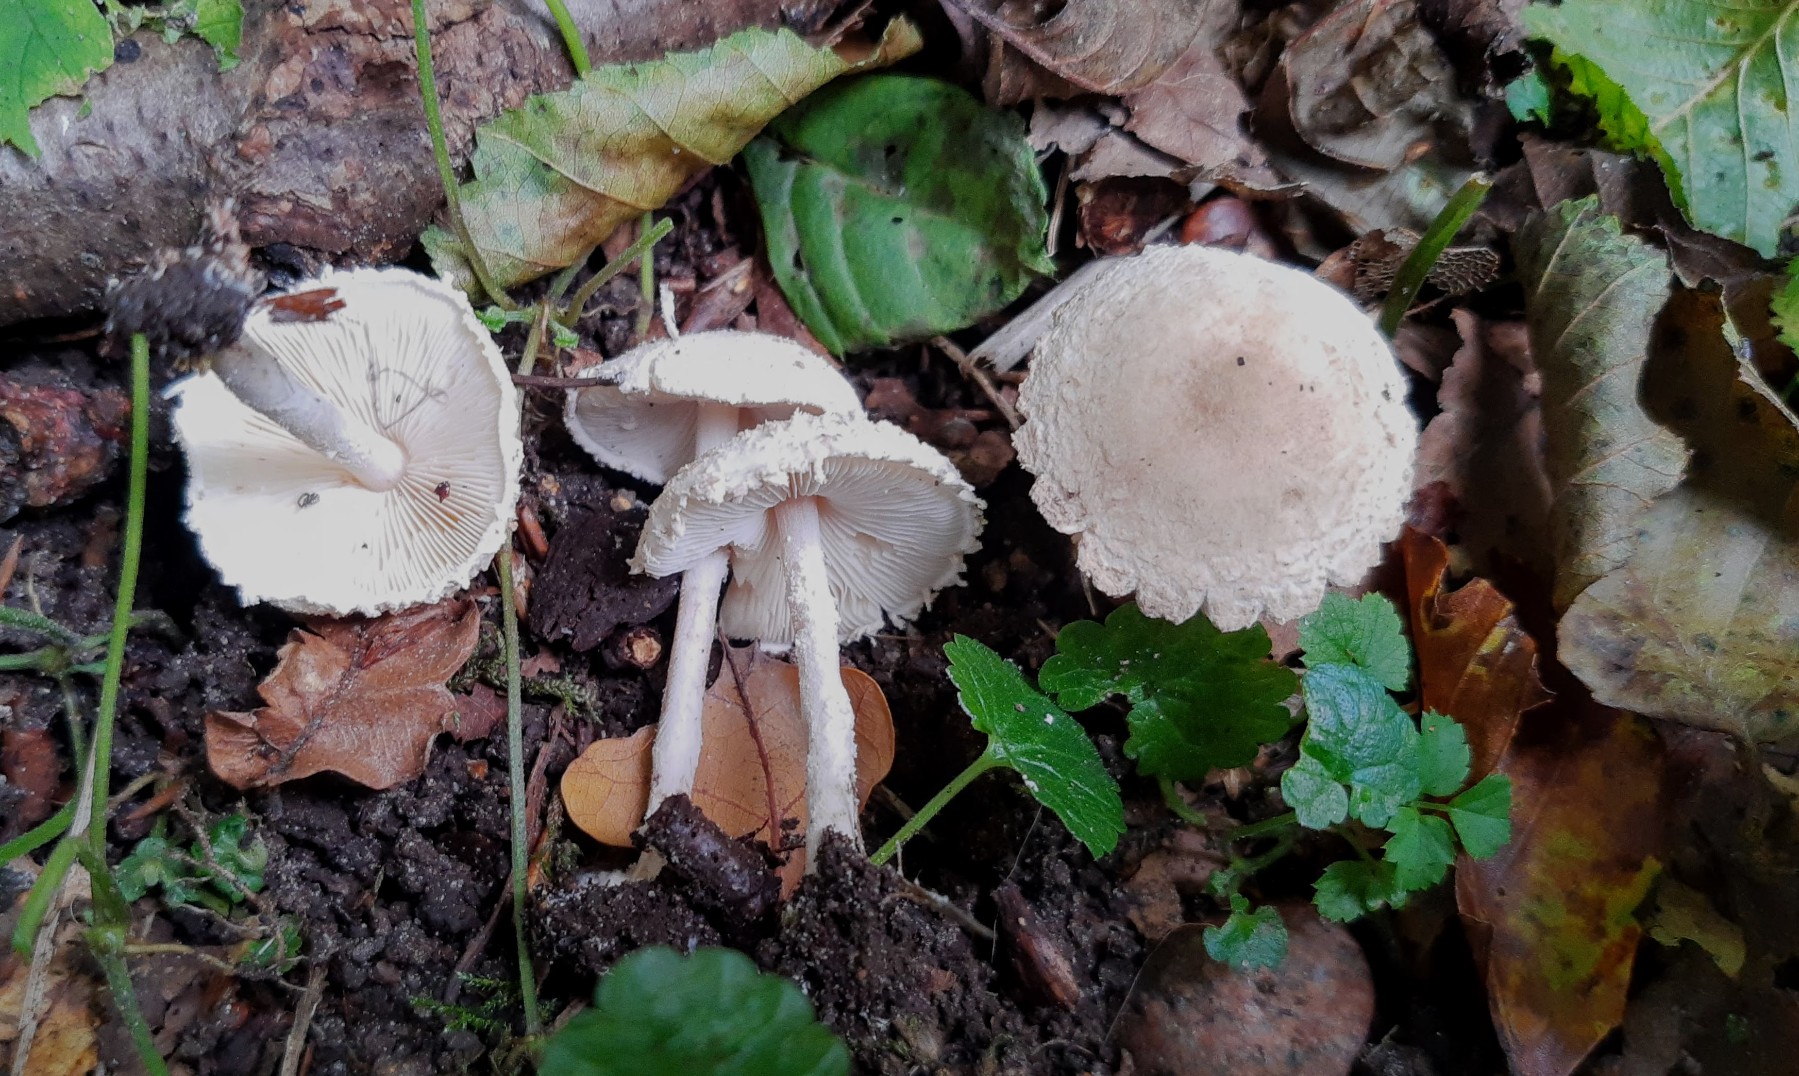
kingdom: Fungi
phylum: Basidiomycota
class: Agaricomycetes
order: Agaricales
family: Agaricaceae
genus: Cystolepiota
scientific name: Cystolepiota adulterina
